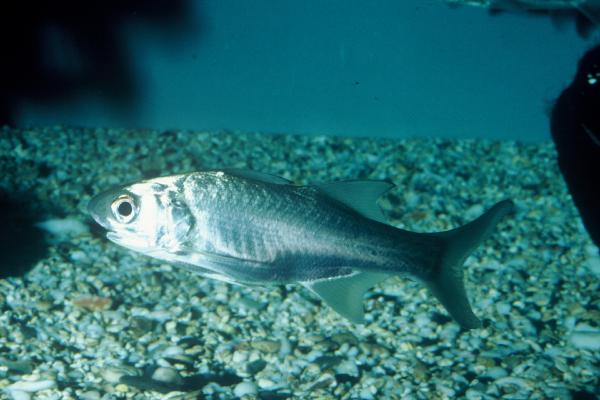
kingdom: Animalia
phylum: Chordata
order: Perciformes
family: Polynemidae
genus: Polydactylus
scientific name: Polydactylus sexfilis
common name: Six-fingered threadfin
